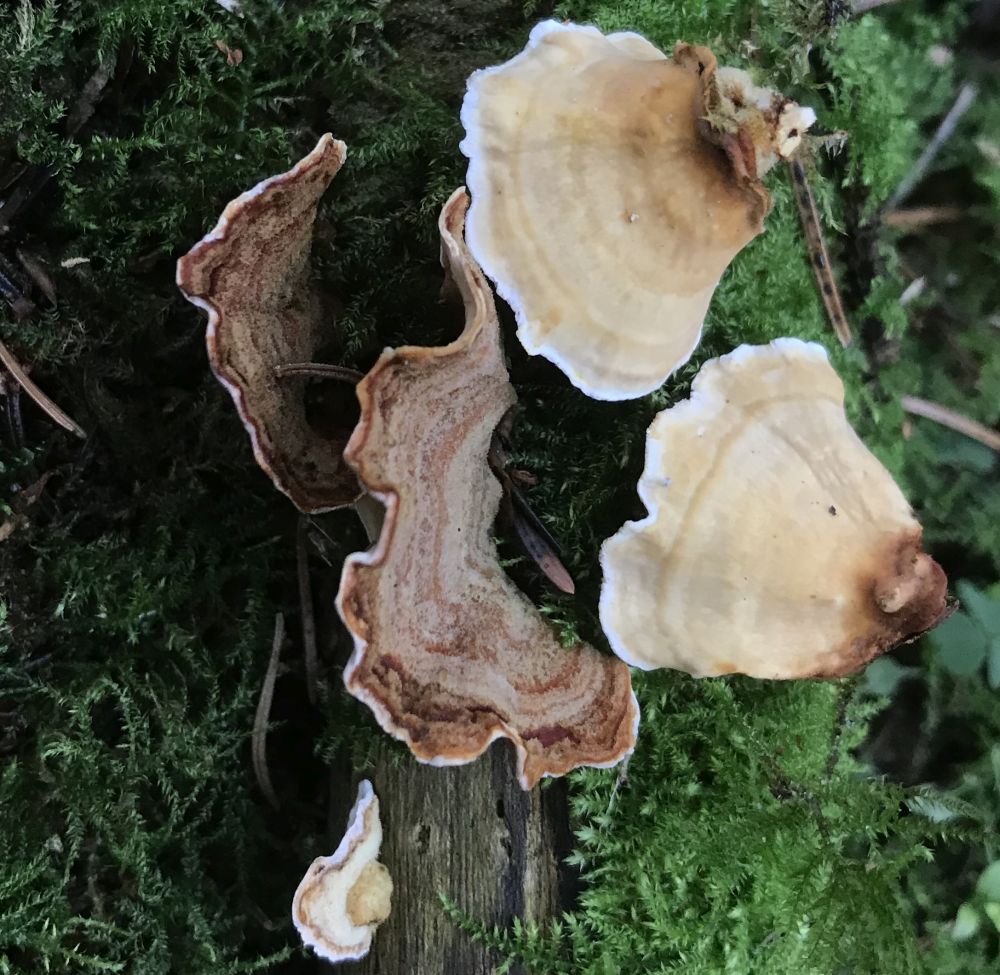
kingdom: Fungi
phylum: Basidiomycota
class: Agaricomycetes
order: Russulales
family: Stereaceae
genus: Stereum
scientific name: Stereum subtomentosum
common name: smuk lædersvamp
